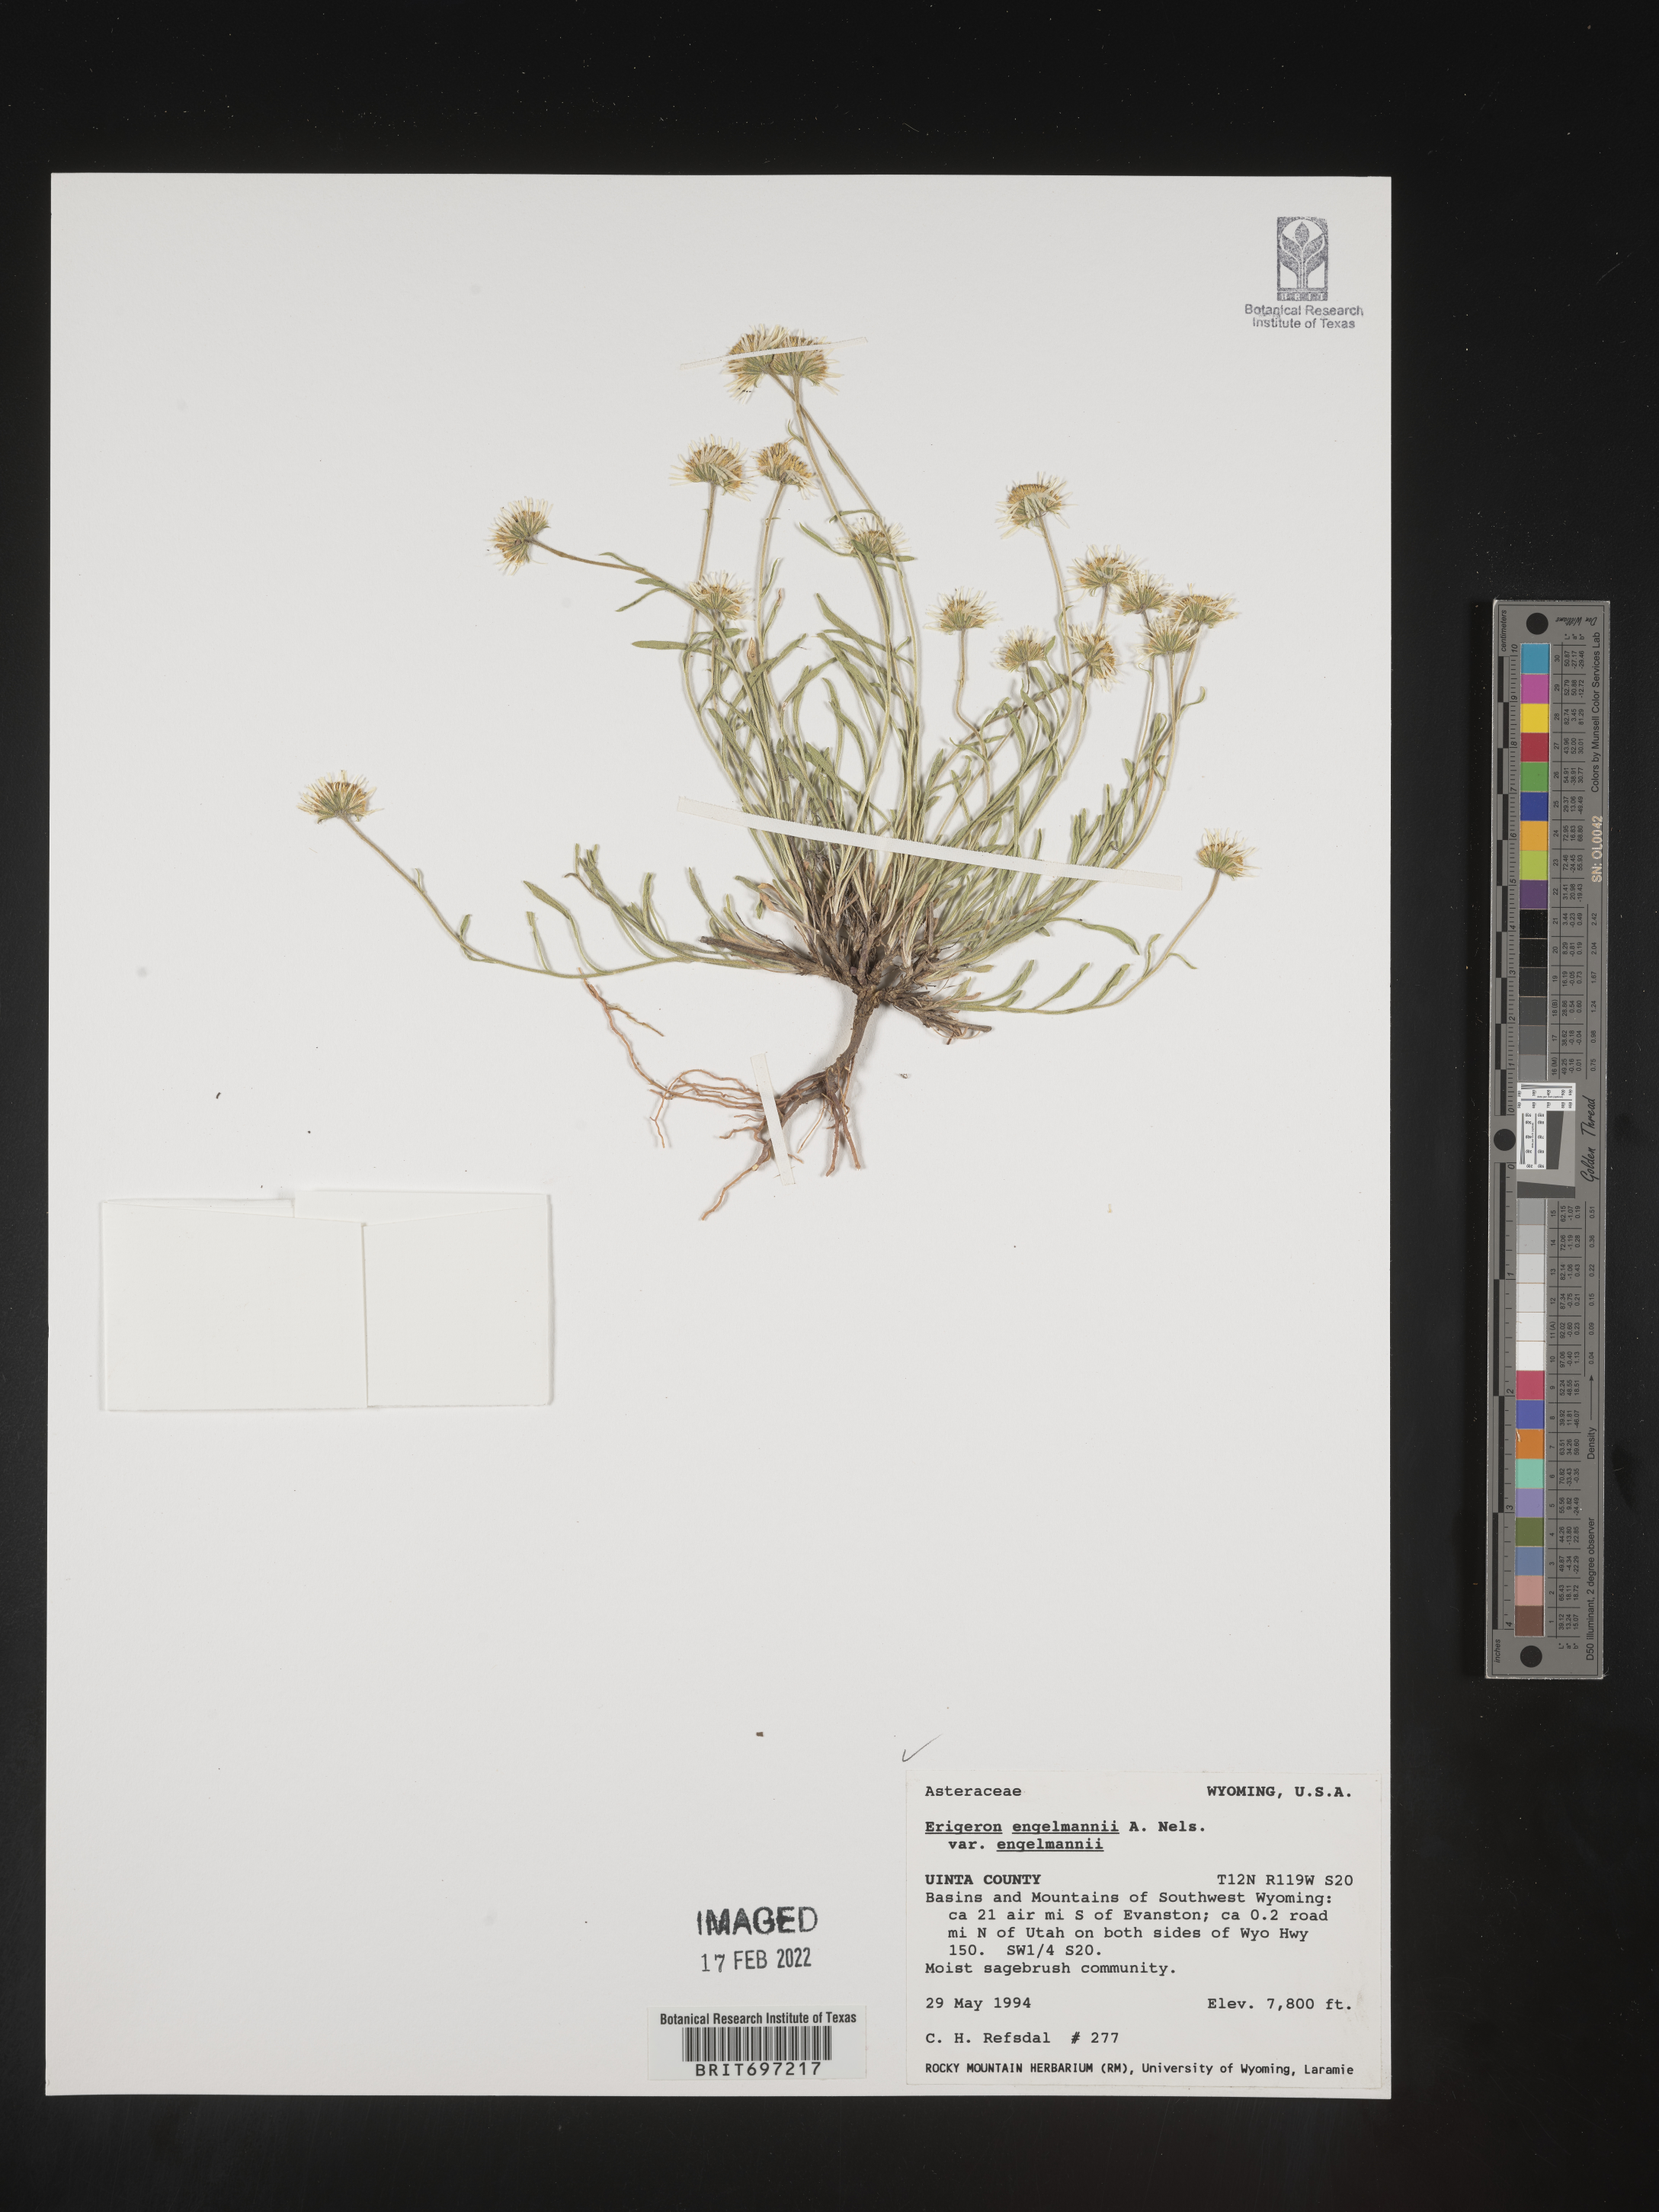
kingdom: Plantae
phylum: Tracheophyta
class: Magnoliopsida
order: Asterales
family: Asteraceae
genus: Erigeron
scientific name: Erigeron engelmannii
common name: Engelmann's fleabane
